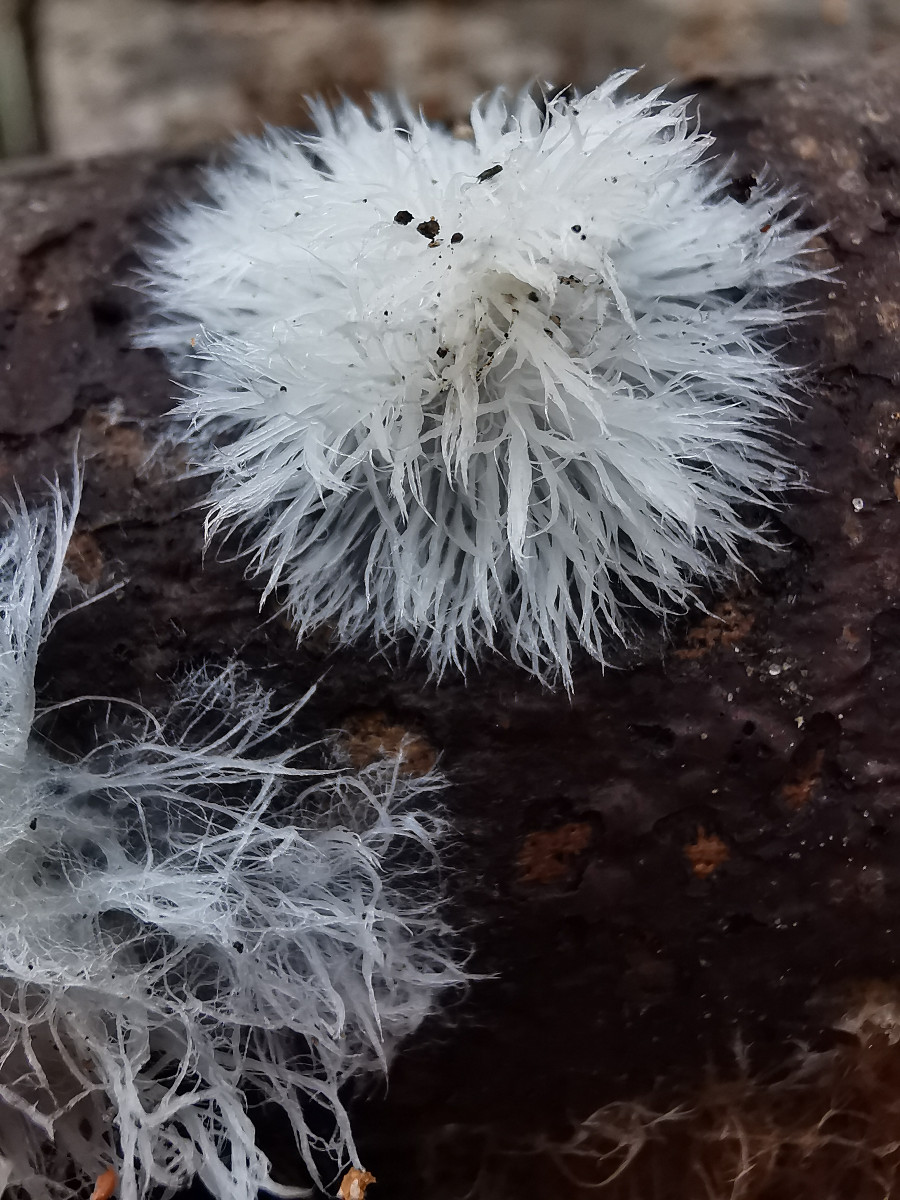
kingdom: Fungi
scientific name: Fungi
